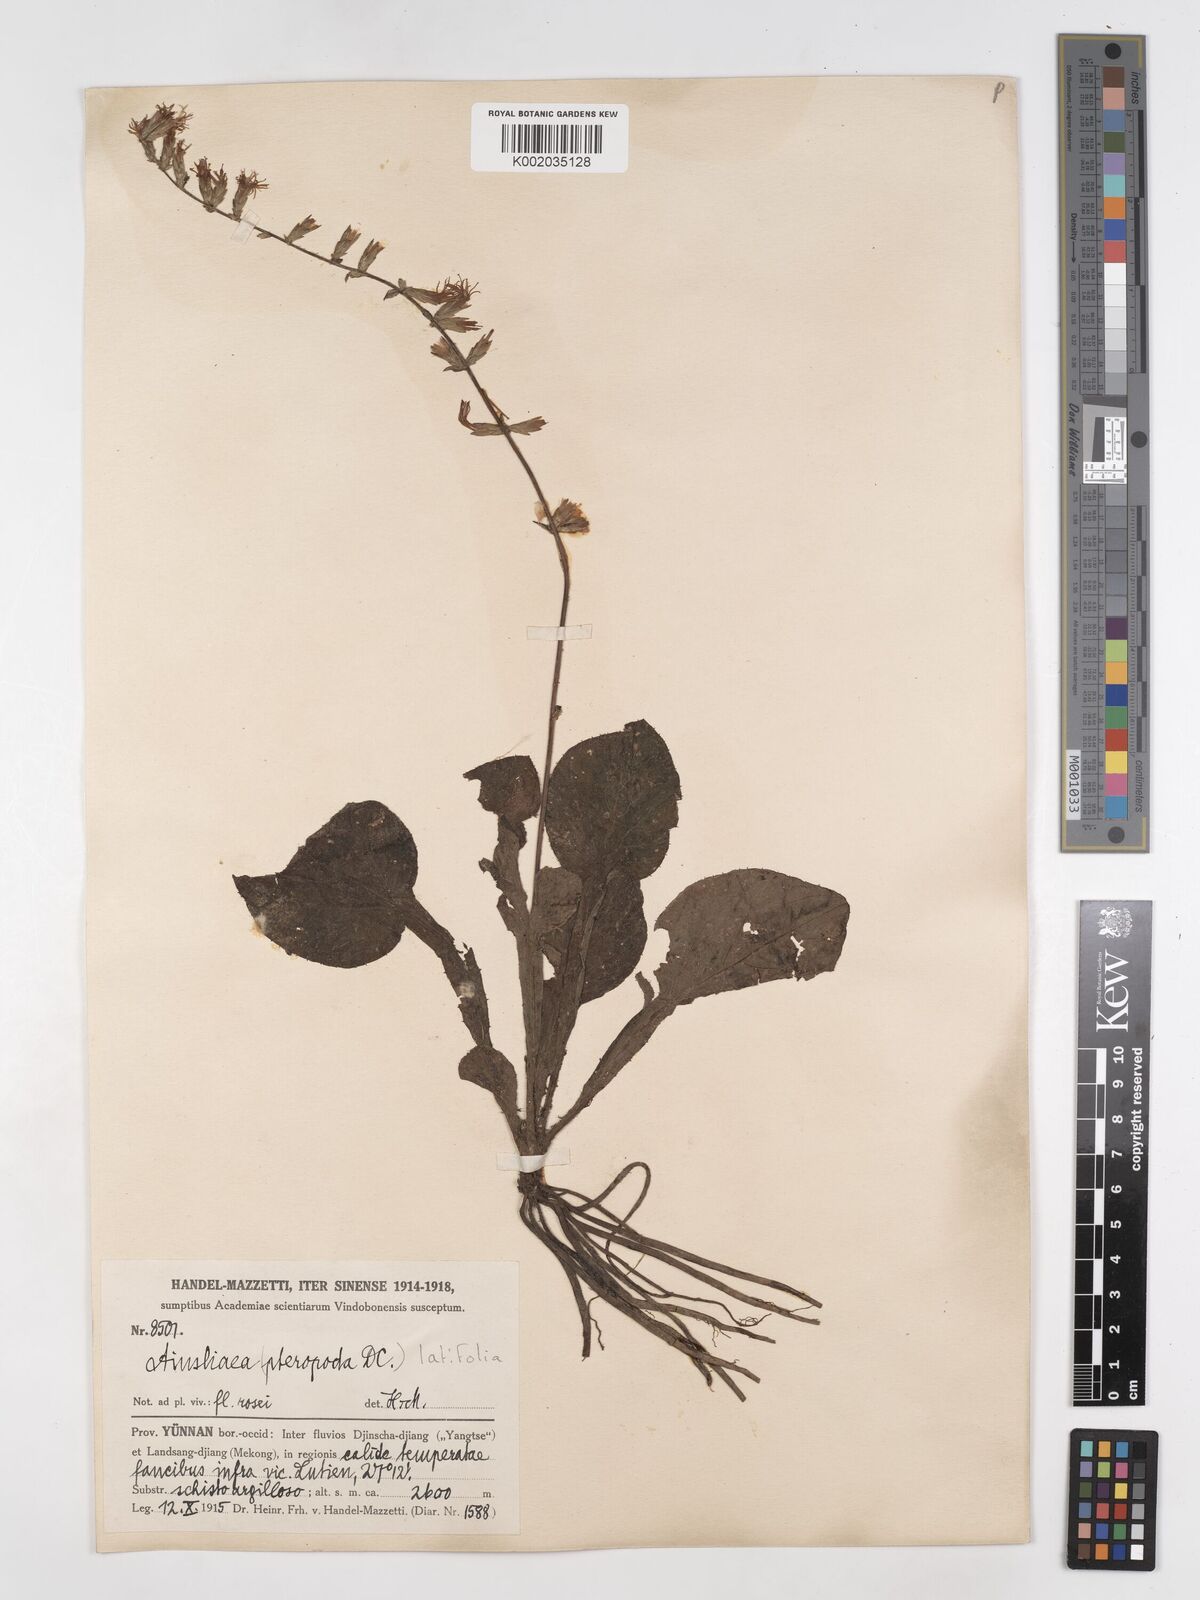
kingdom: Plantae
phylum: Tracheophyta
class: Magnoliopsida
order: Asterales
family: Asteraceae
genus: Ainsliaea
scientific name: Ainsliaea latifolia
